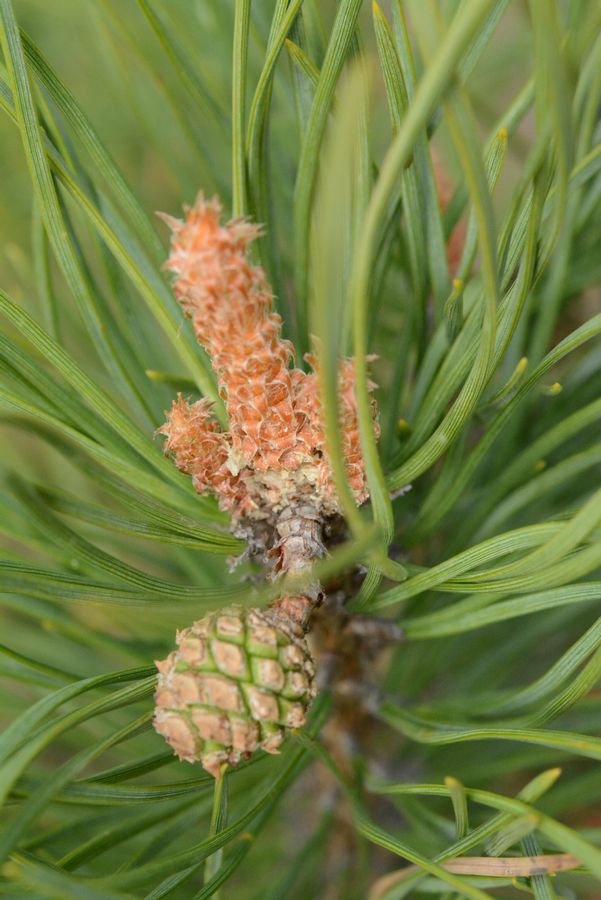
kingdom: Plantae
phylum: Tracheophyta
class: Pinopsida
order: Pinales
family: Pinaceae
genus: Pinus
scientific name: Pinus sylvestris
